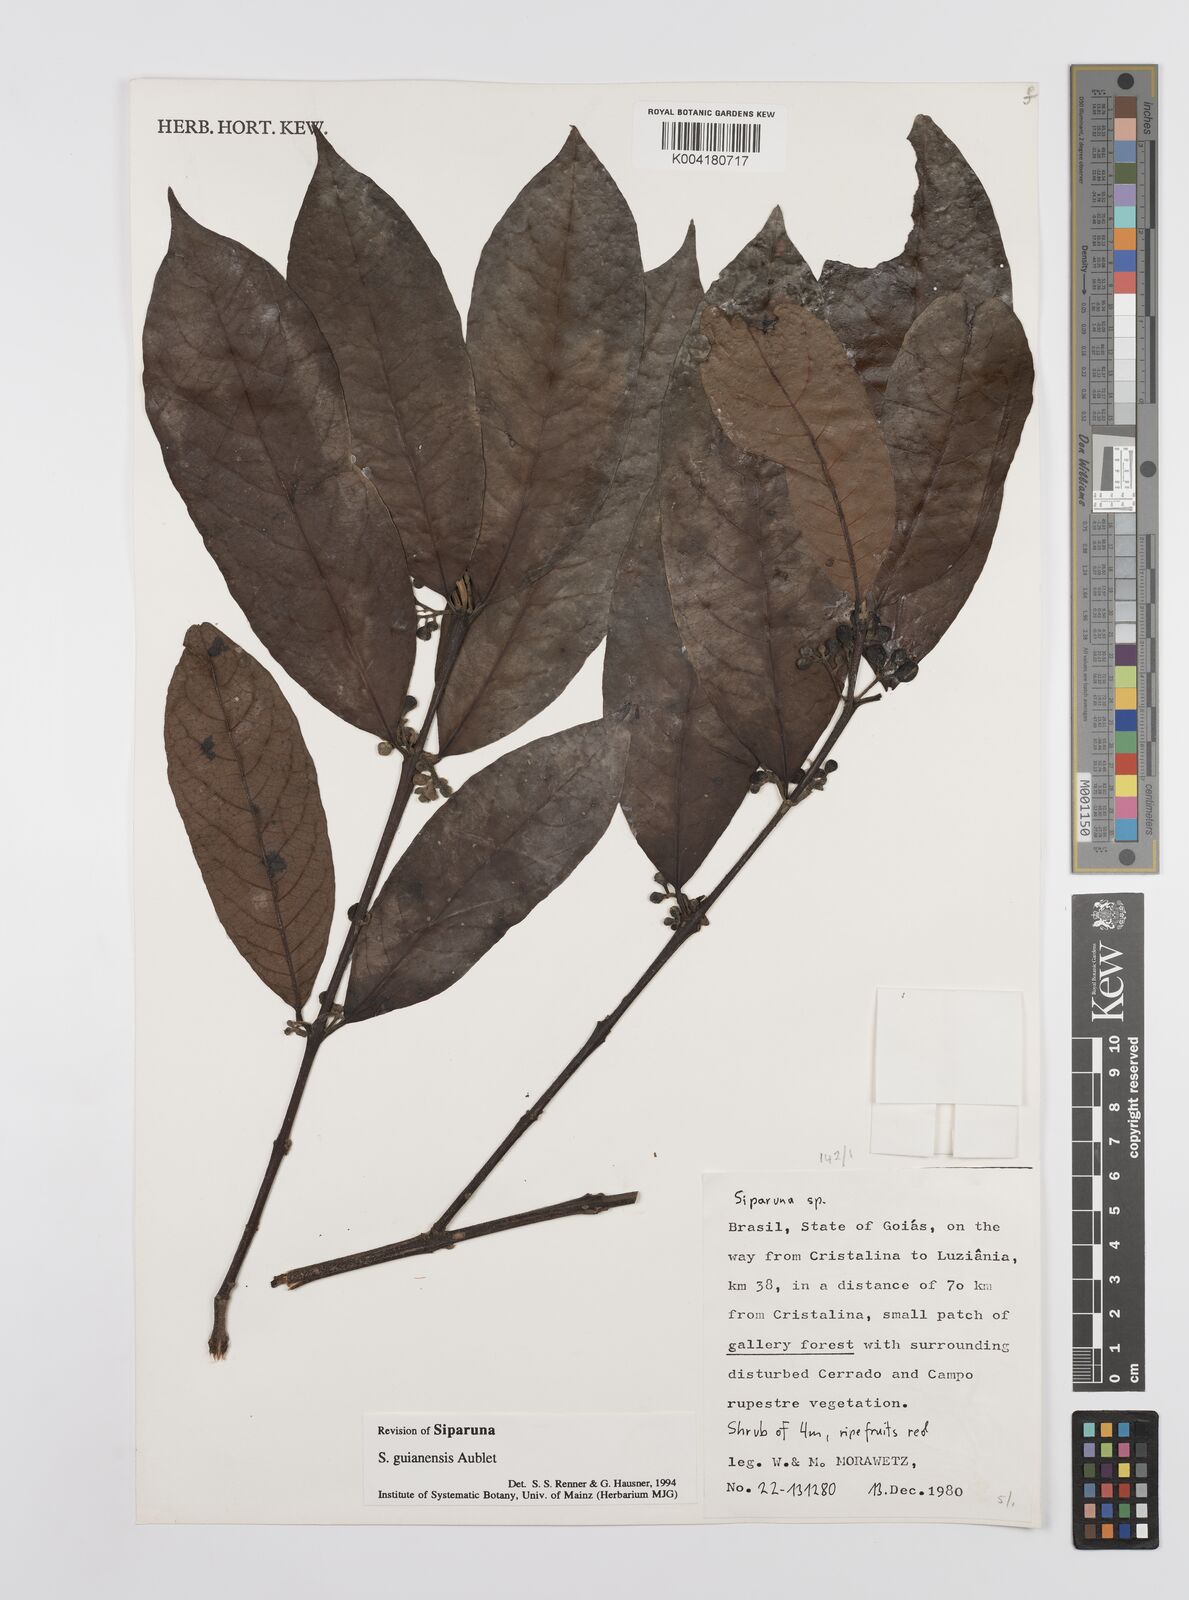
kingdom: Plantae
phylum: Tracheophyta
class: Magnoliopsida
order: Laurales
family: Siparunaceae
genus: Siparuna
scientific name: Siparuna guianensis
